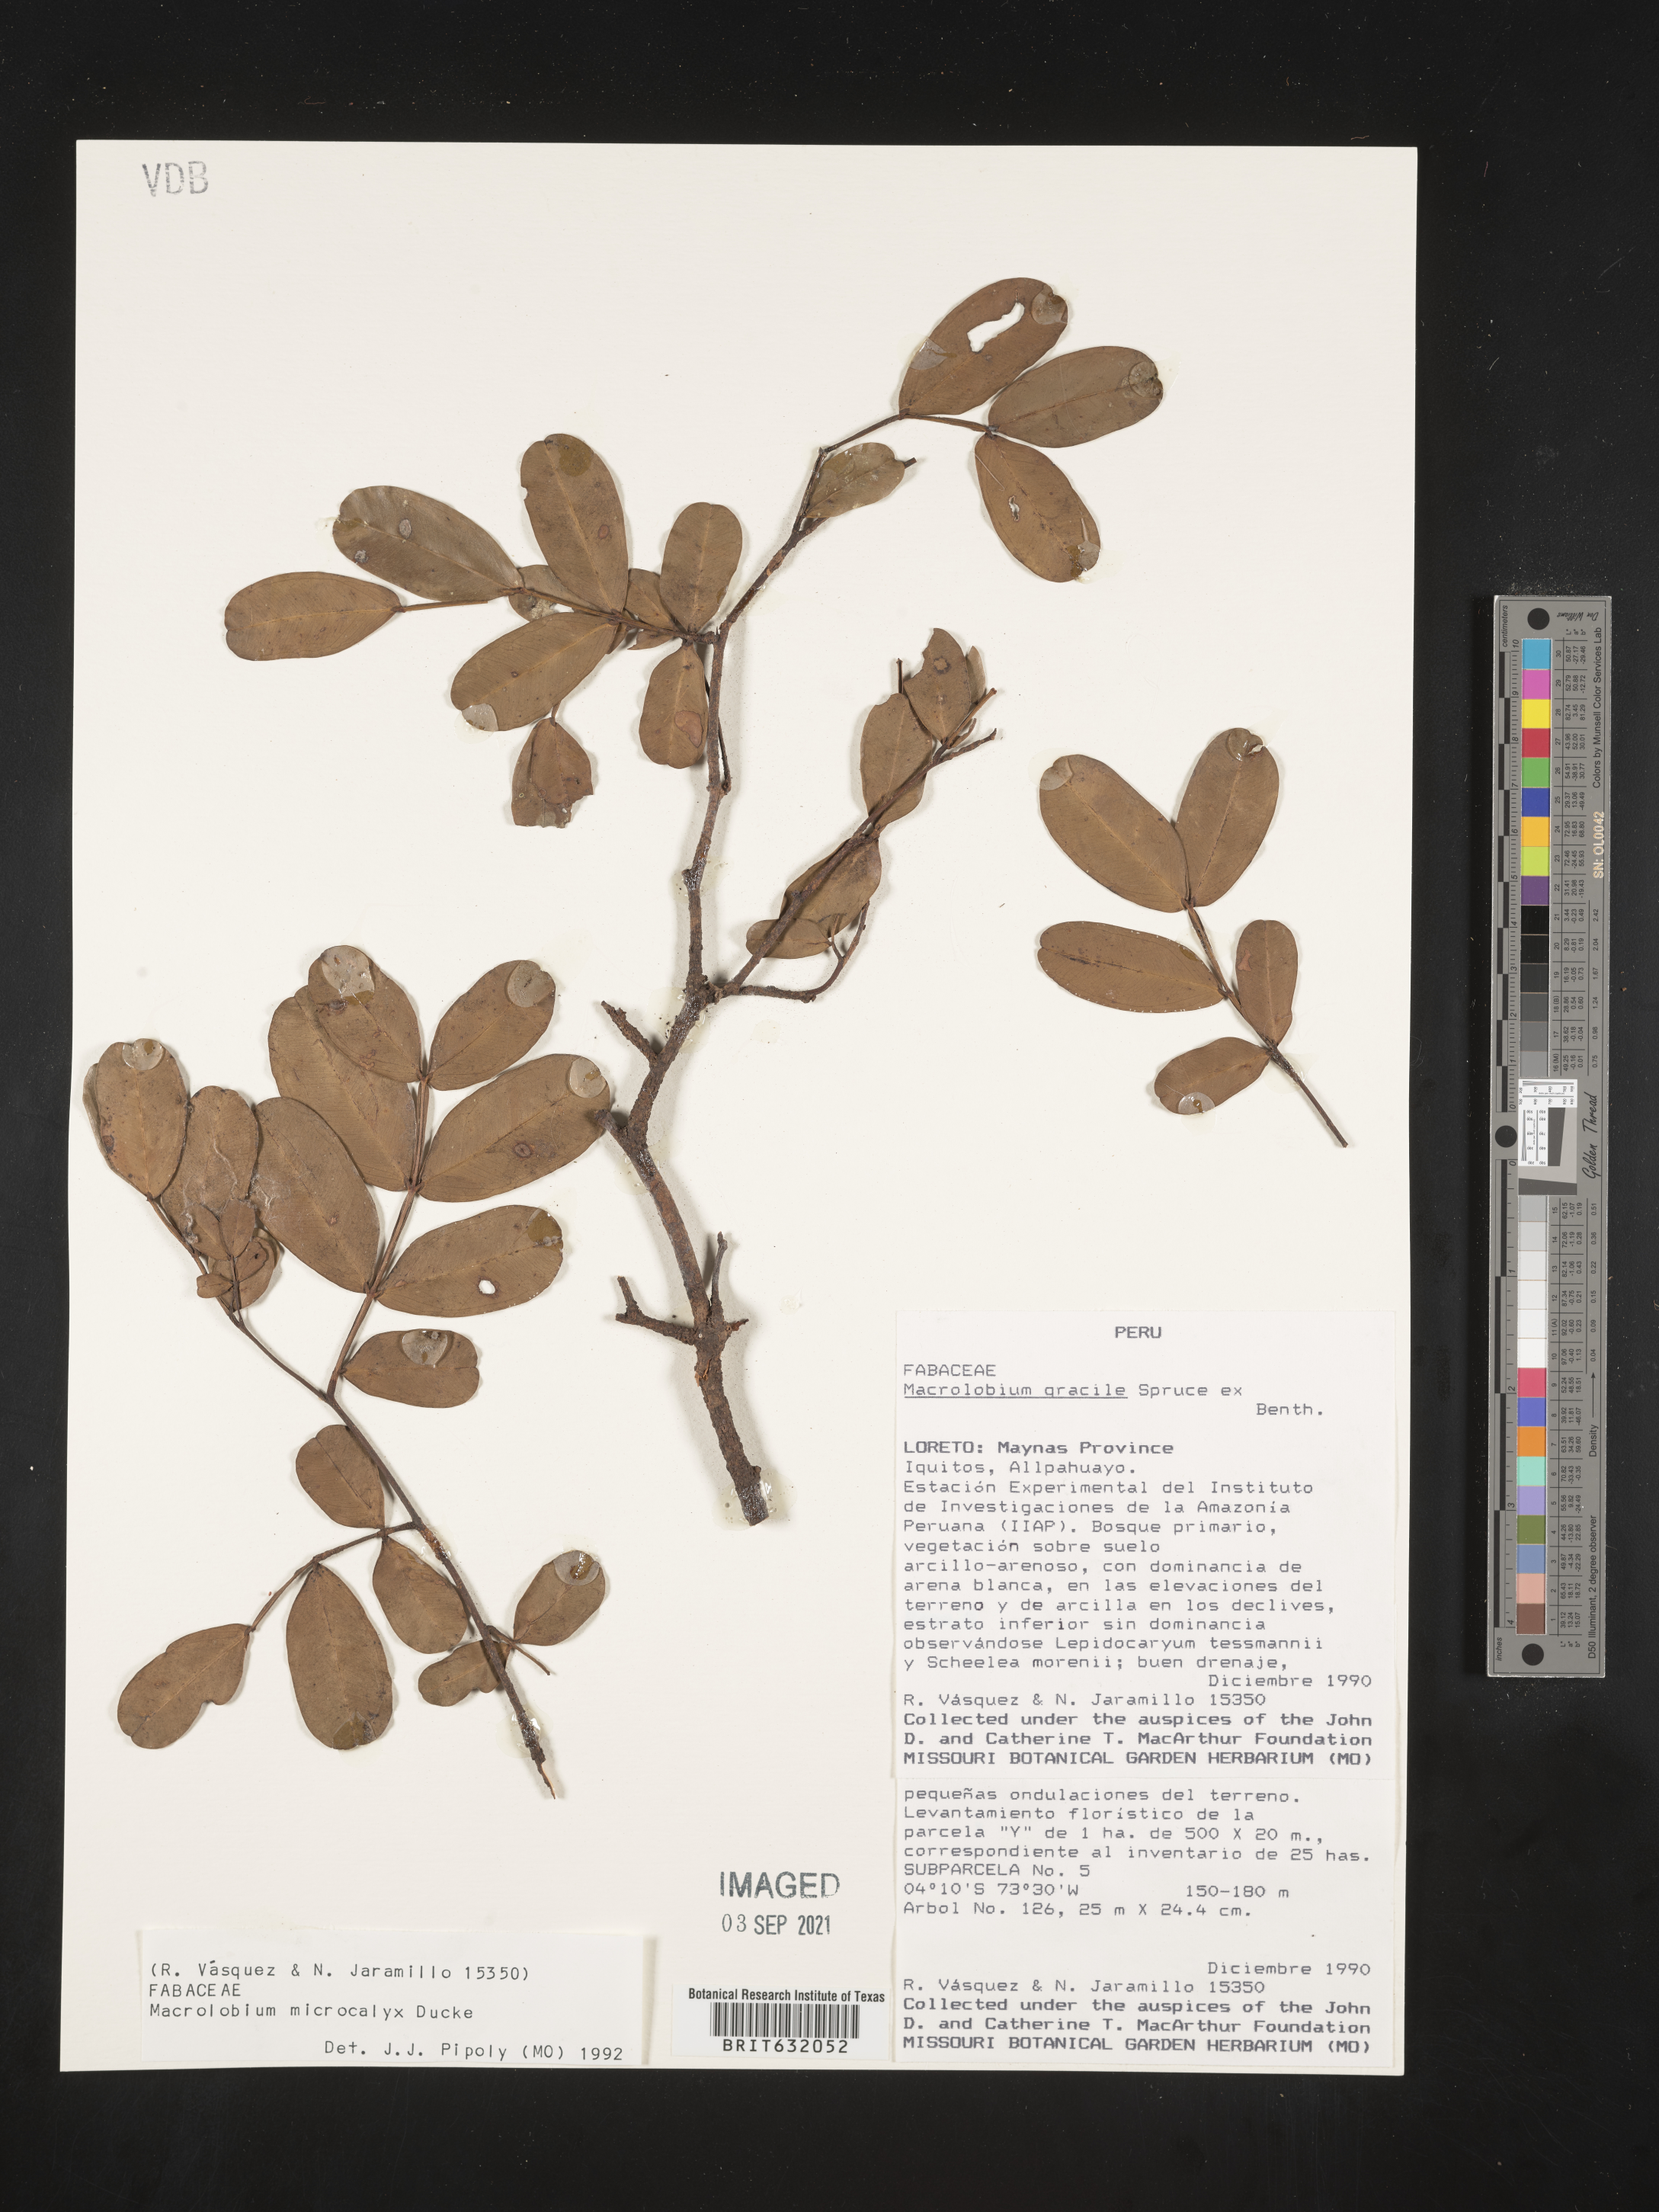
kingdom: Plantae
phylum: Tracheophyta
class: Magnoliopsida
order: Fabales
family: Fabaceae
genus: Macrolobium
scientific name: Macrolobium
